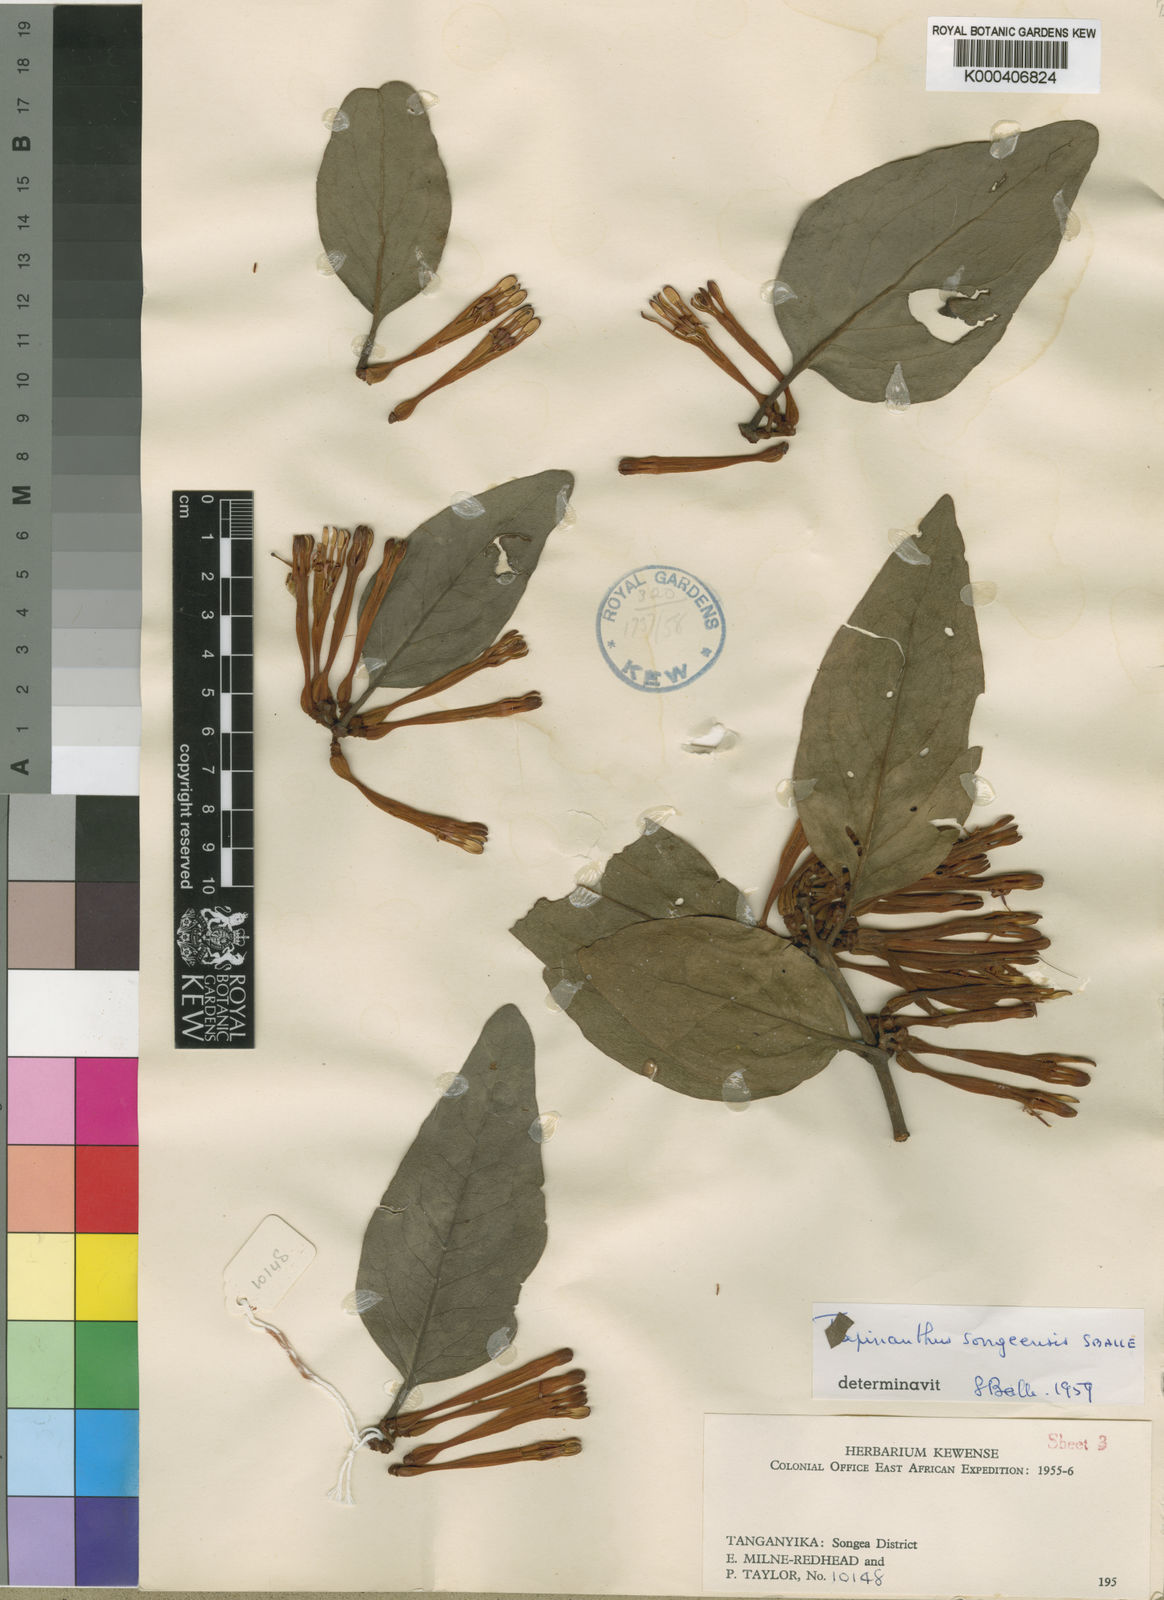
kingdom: Plantae
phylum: Tracheophyta
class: Magnoliopsida
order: Santalales
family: Loranthaceae
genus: Agelanthus
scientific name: Agelanthus songeensis
